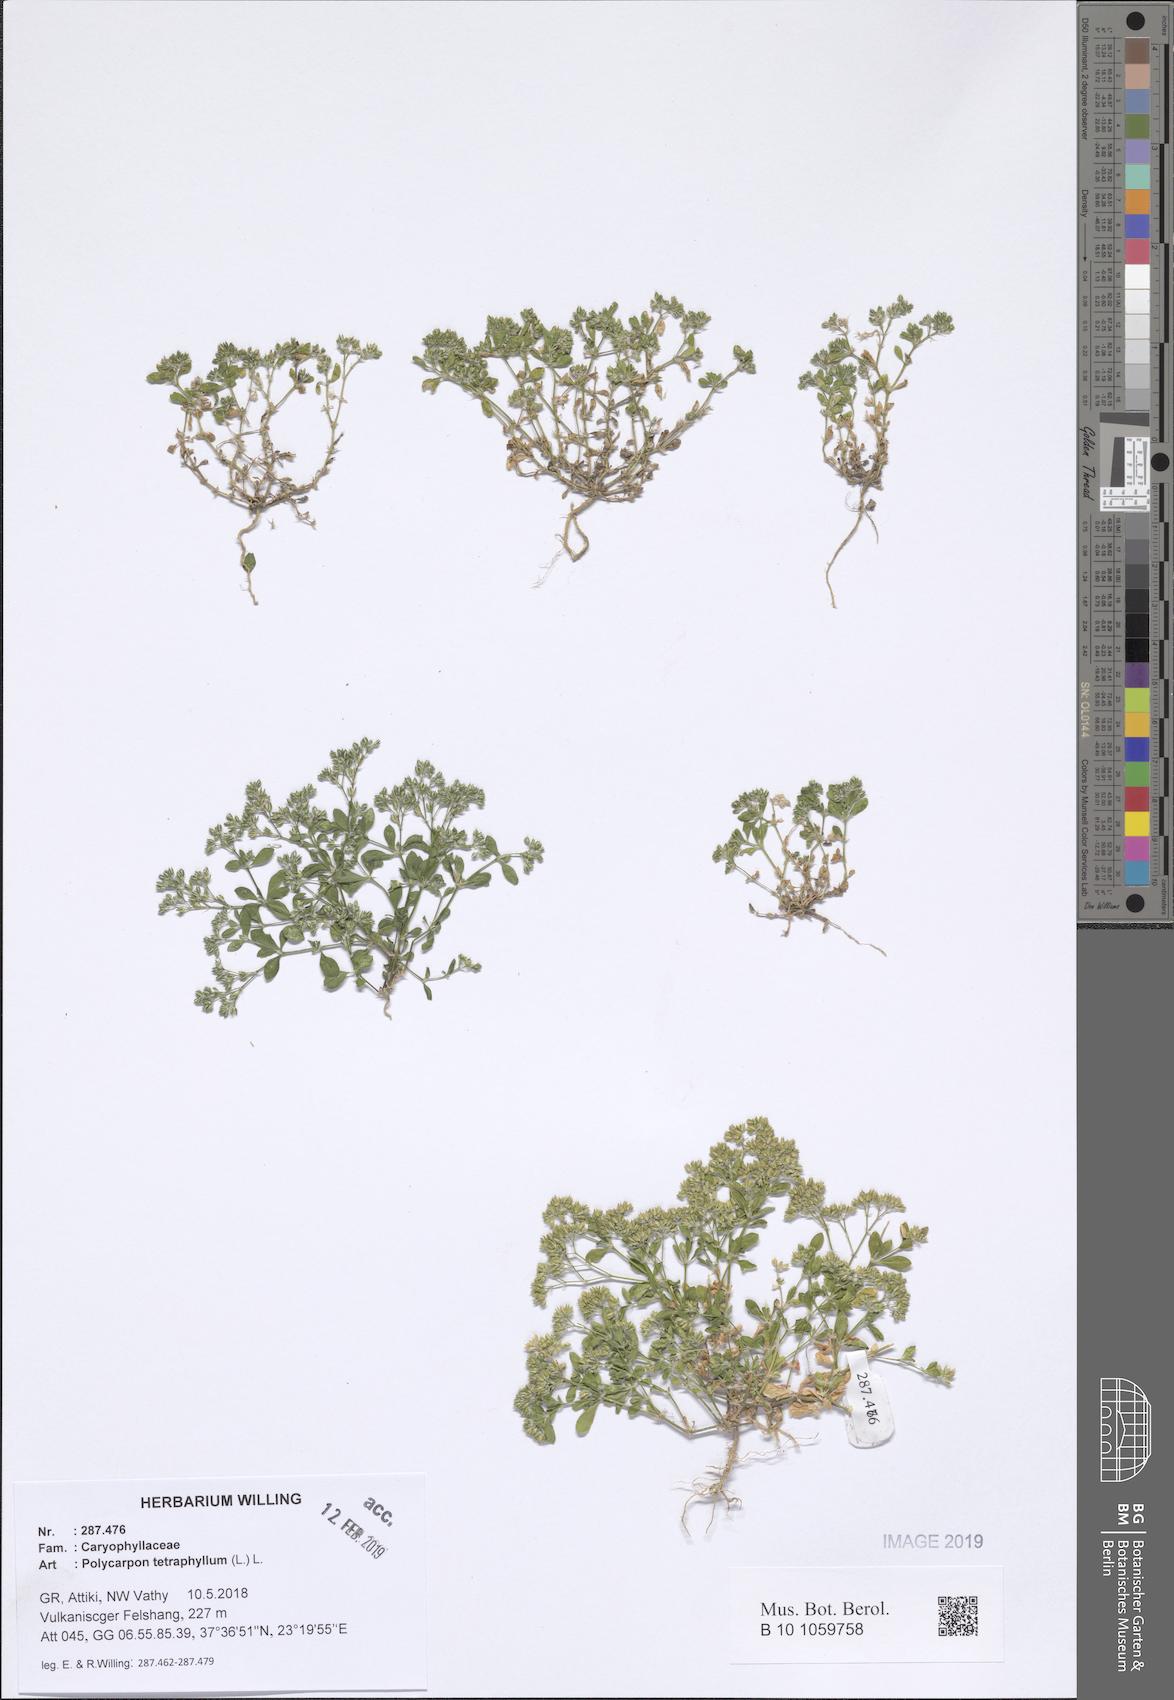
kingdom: Plantae
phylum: Tracheophyta
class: Magnoliopsida
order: Caryophyllales
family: Caryophyllaceae
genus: Polycarpon
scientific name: Polycarpon tetraphyllum
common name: Four-leaved all-seed
